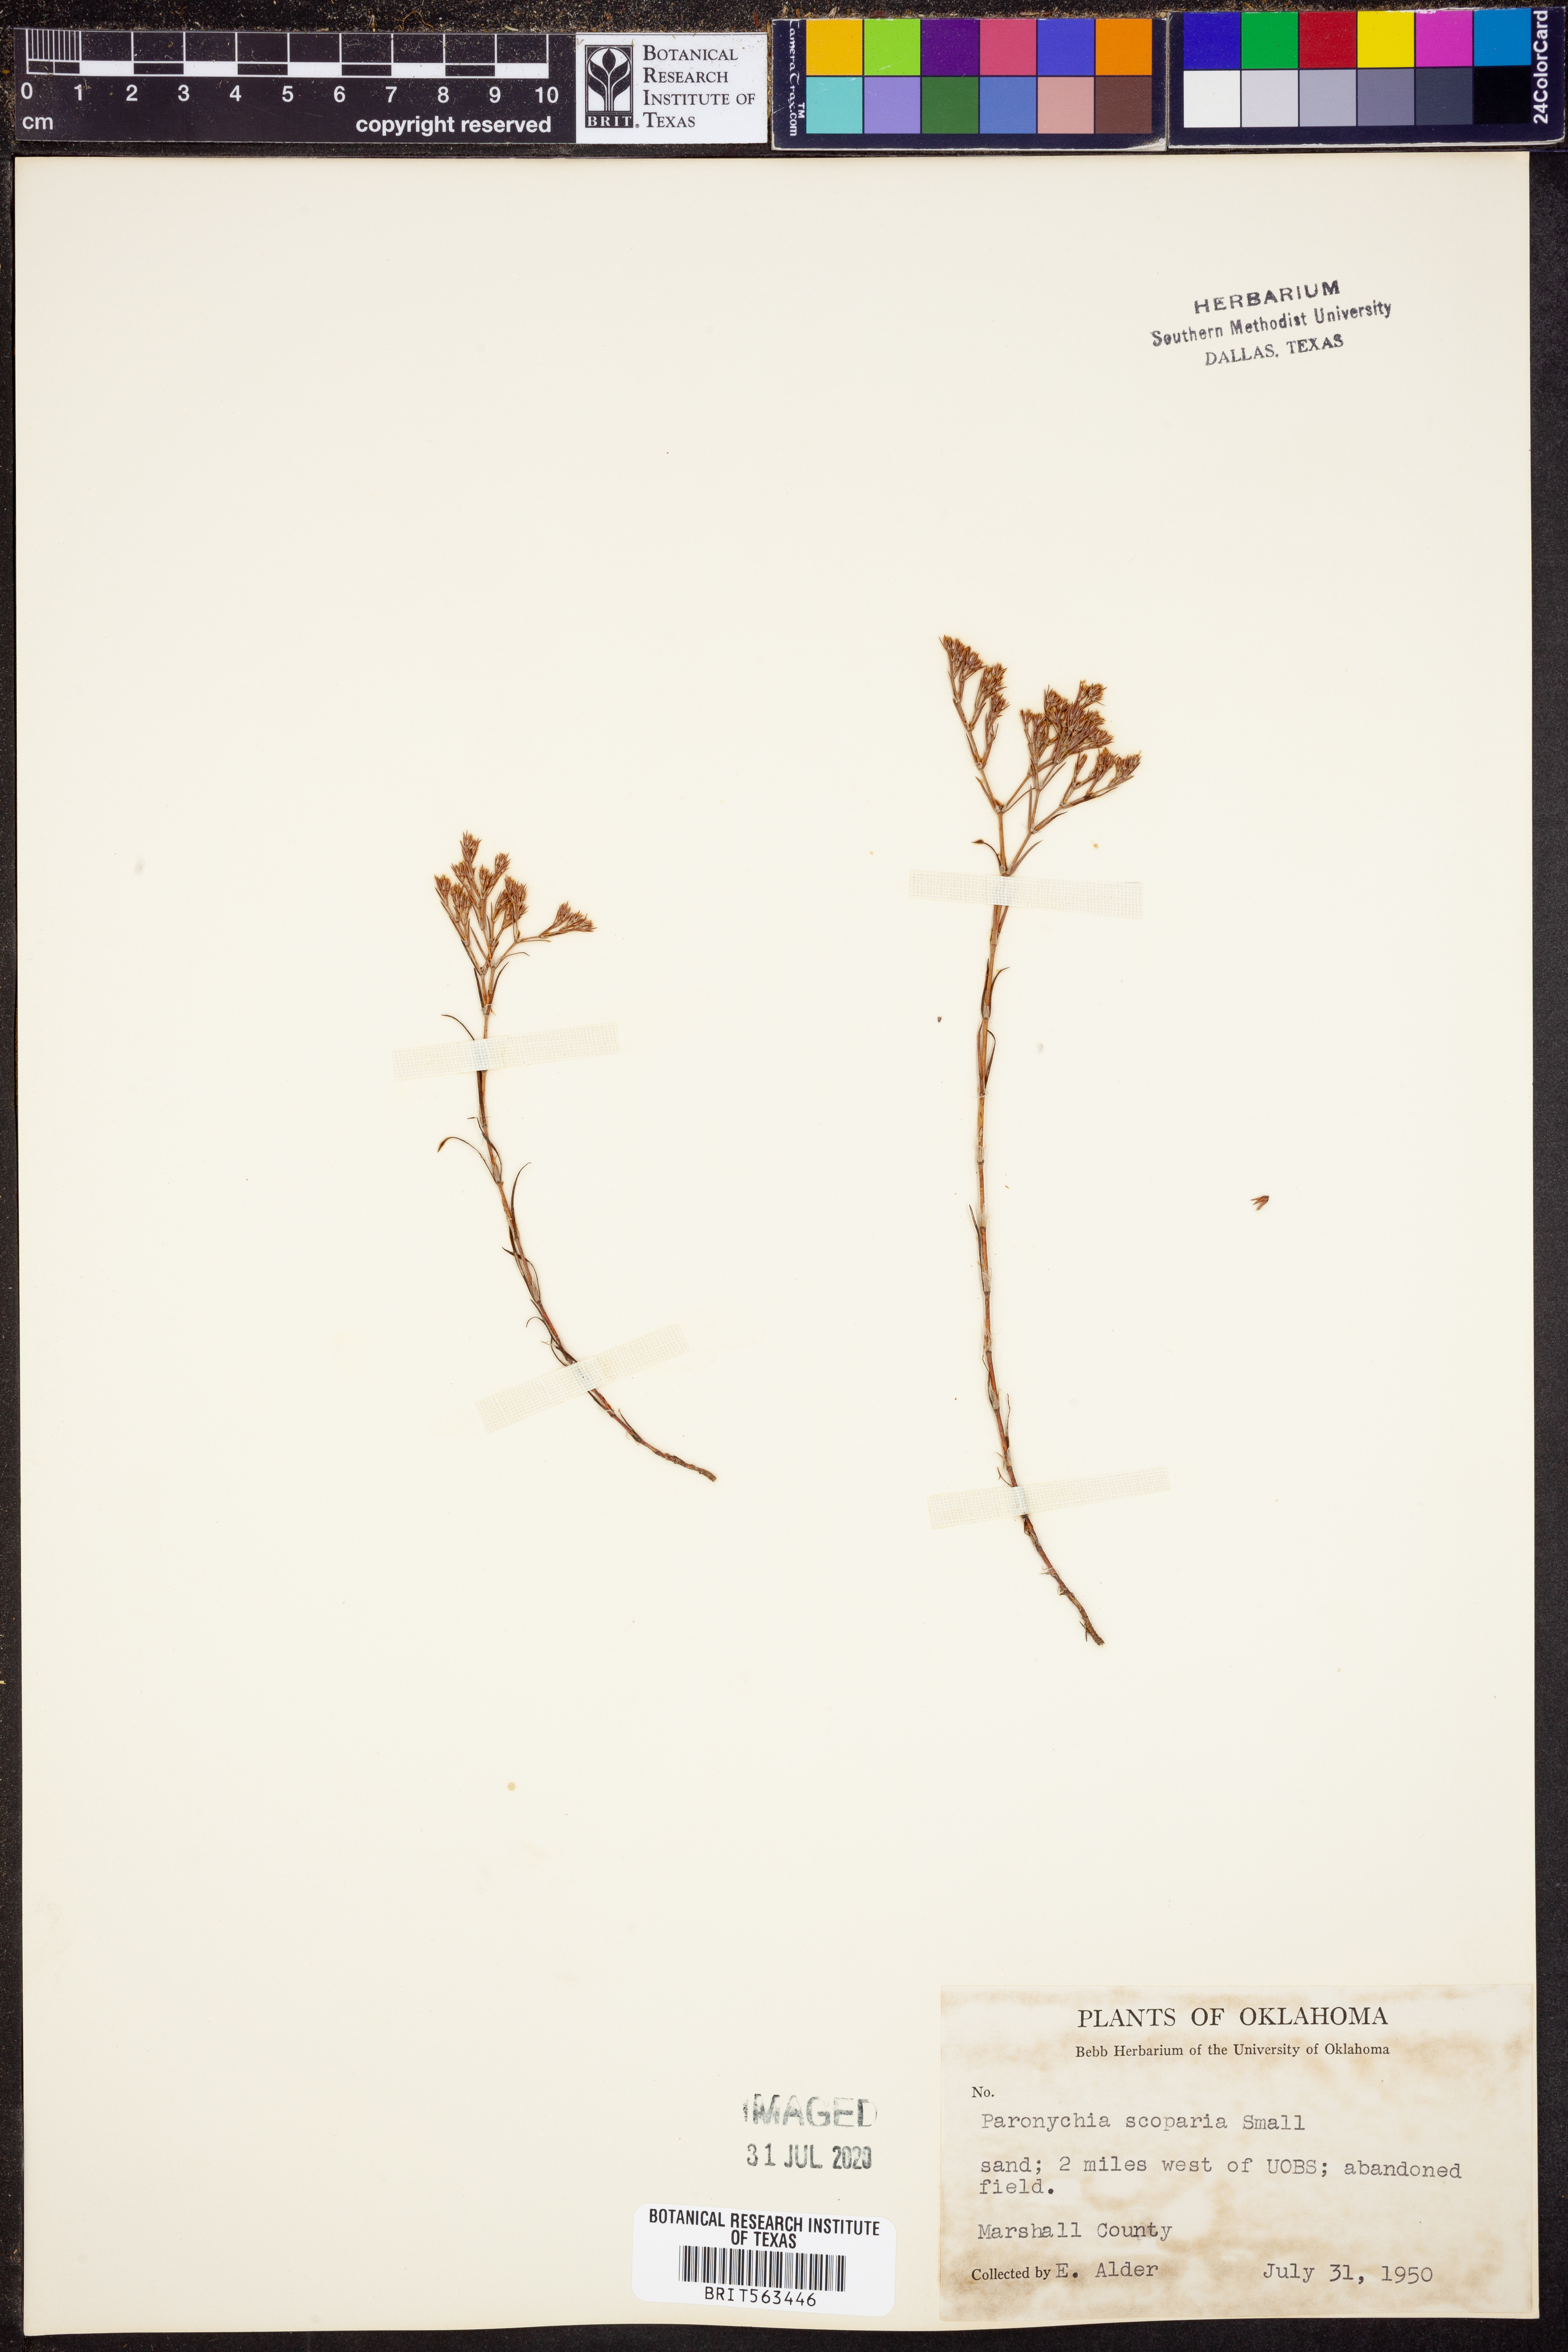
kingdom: Plantae
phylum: Tracheophyta
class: Magnoliopsida
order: Caryophyllales
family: Caryophyllaceae
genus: Paronychia
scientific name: Paronychia virginica
